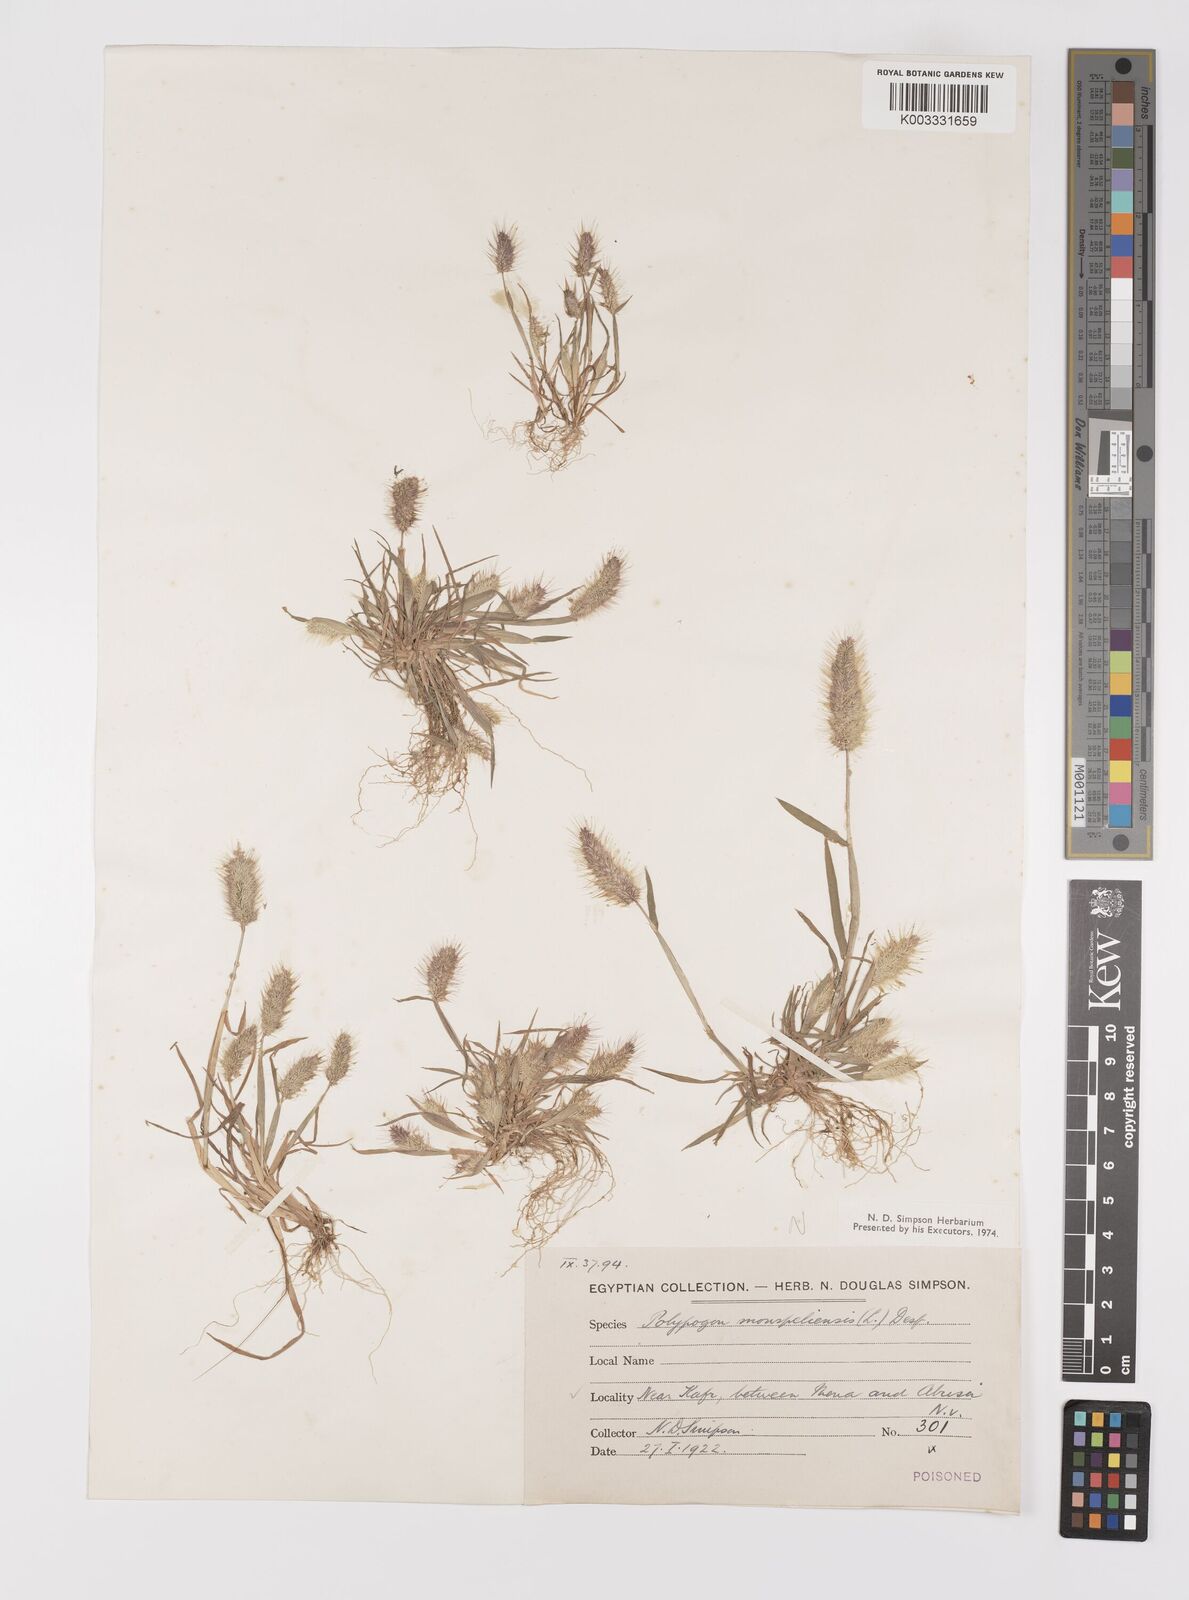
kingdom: Plantae
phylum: Tracheophyta
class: Liliopsida
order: Poales
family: Poaceae
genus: Polypogon
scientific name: Polypogon monspeliensis
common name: Annual rabbitsfoot grass
